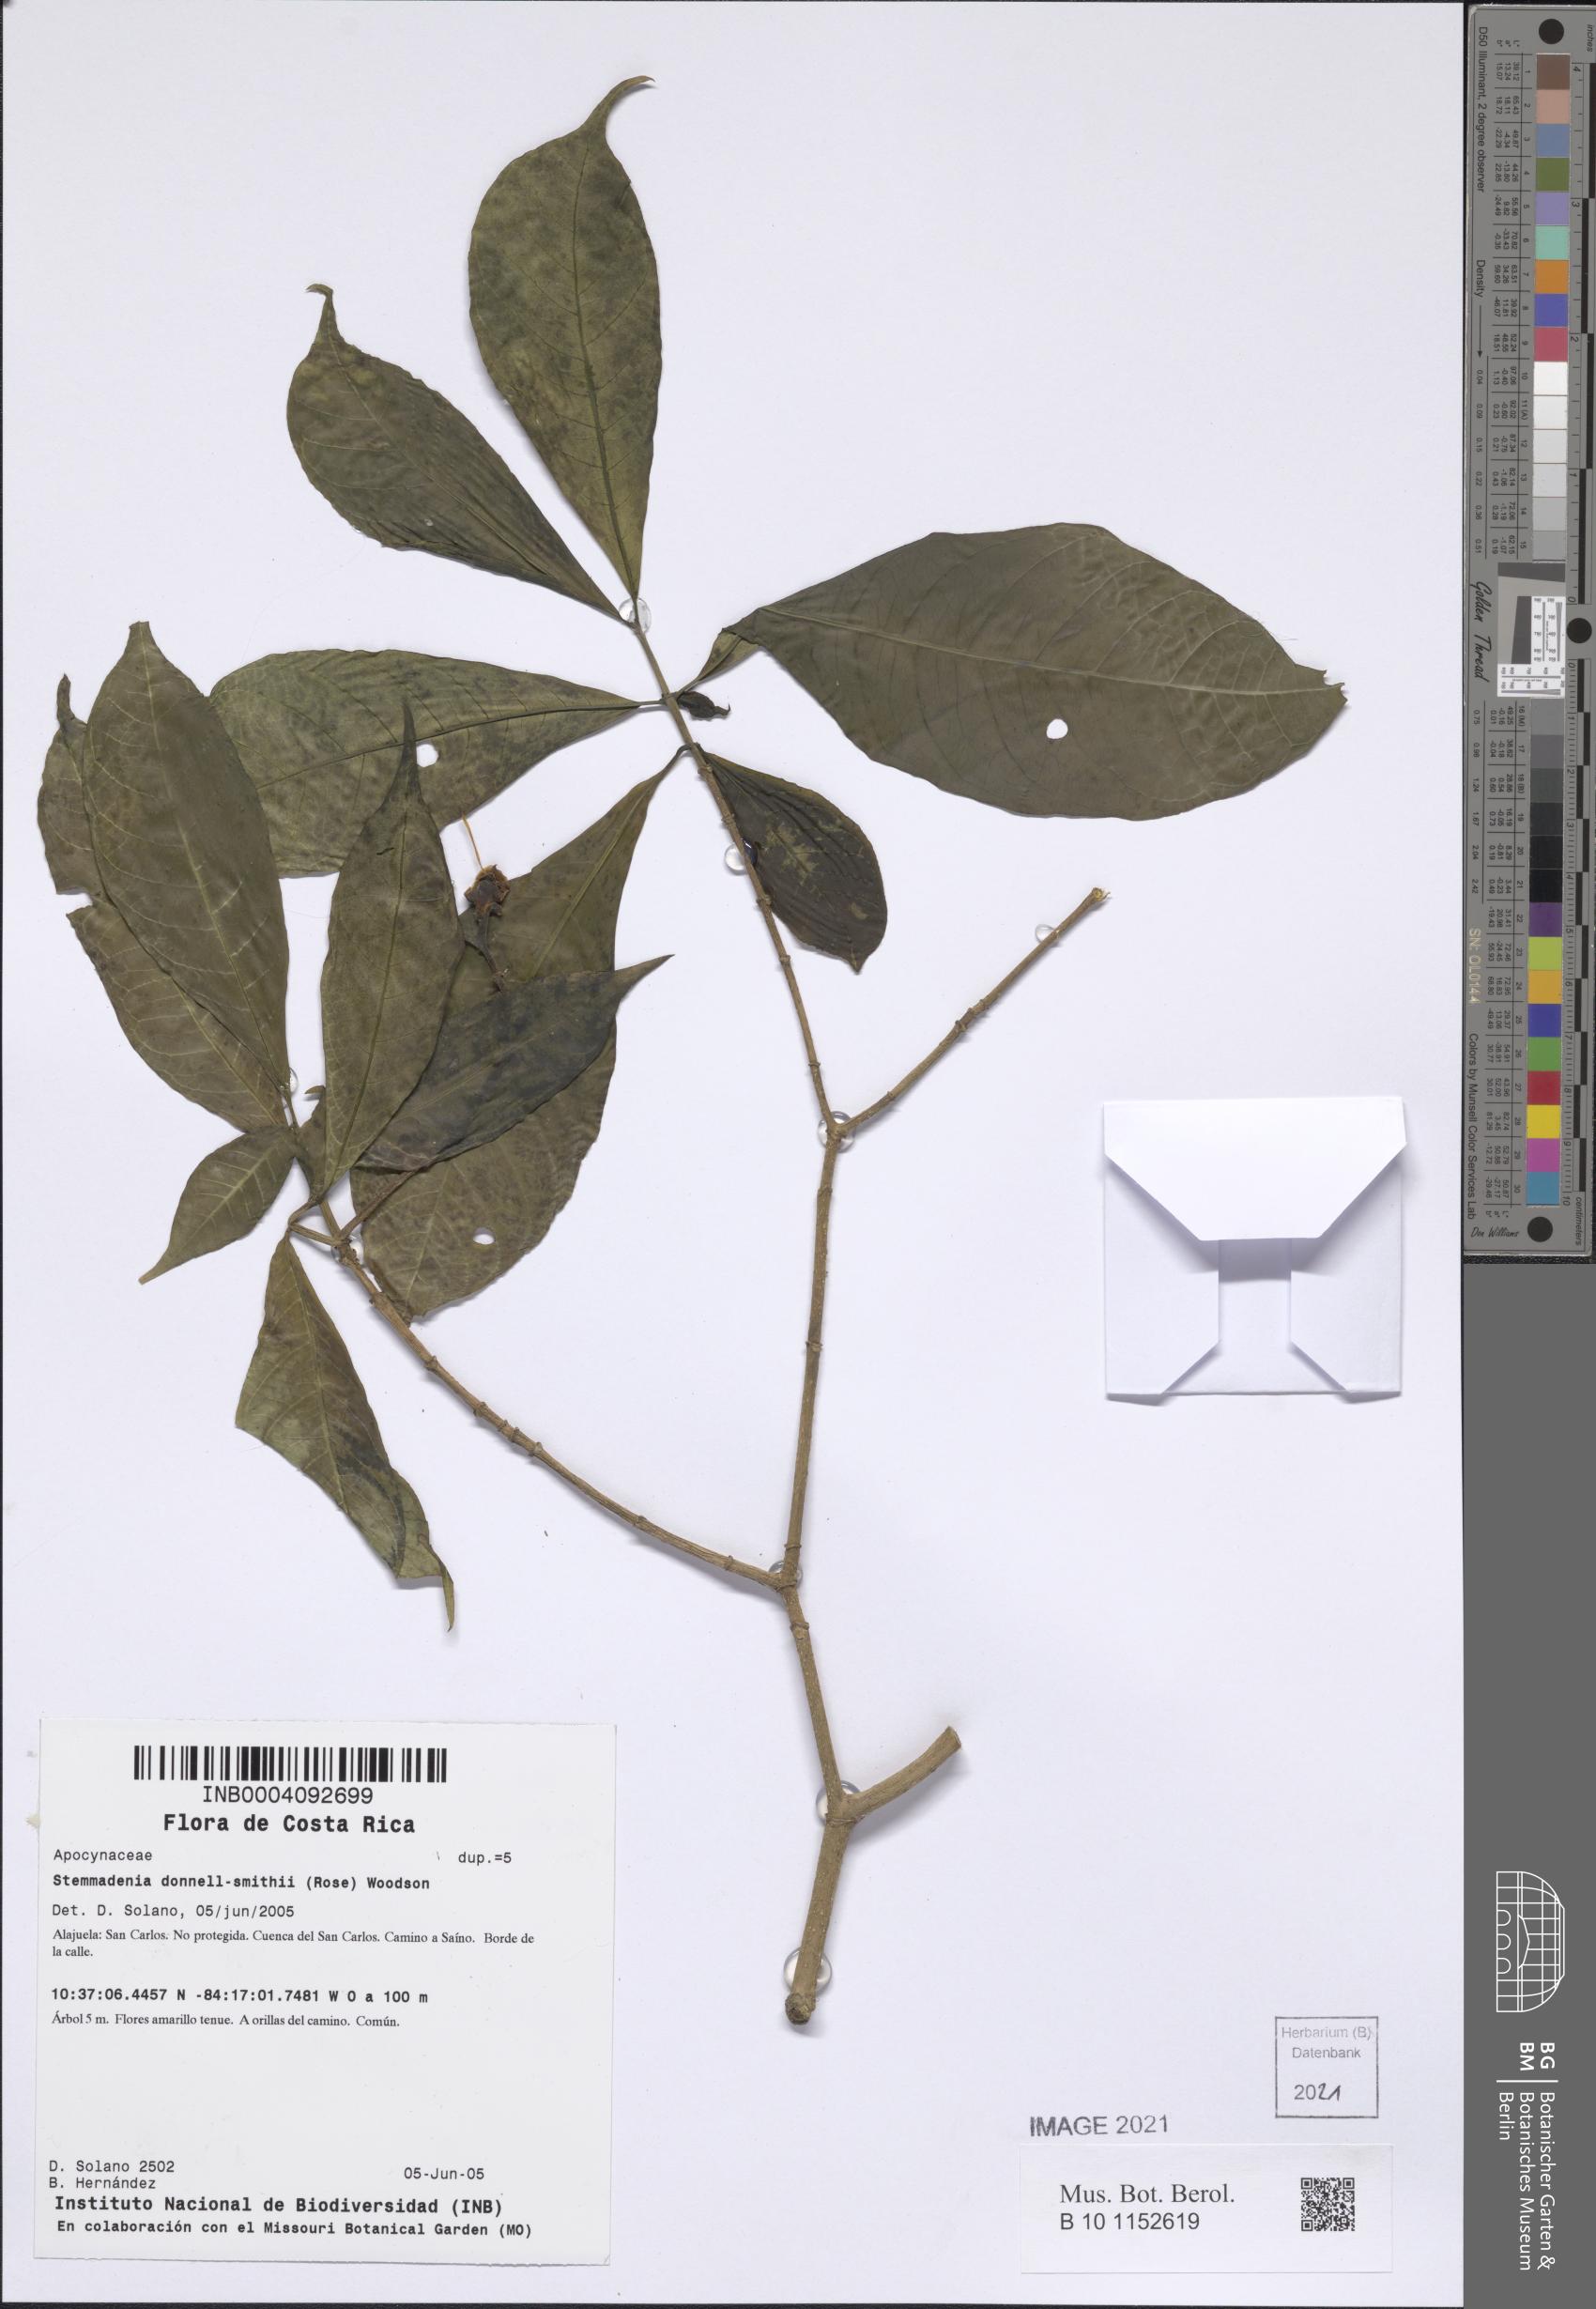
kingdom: Plantae
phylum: Tracheophyta
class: Magnoliopsida
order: Gentianales
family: Apocynaceae
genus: Tabernaemontana
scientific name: Tabernaemontana donnell-smithii
